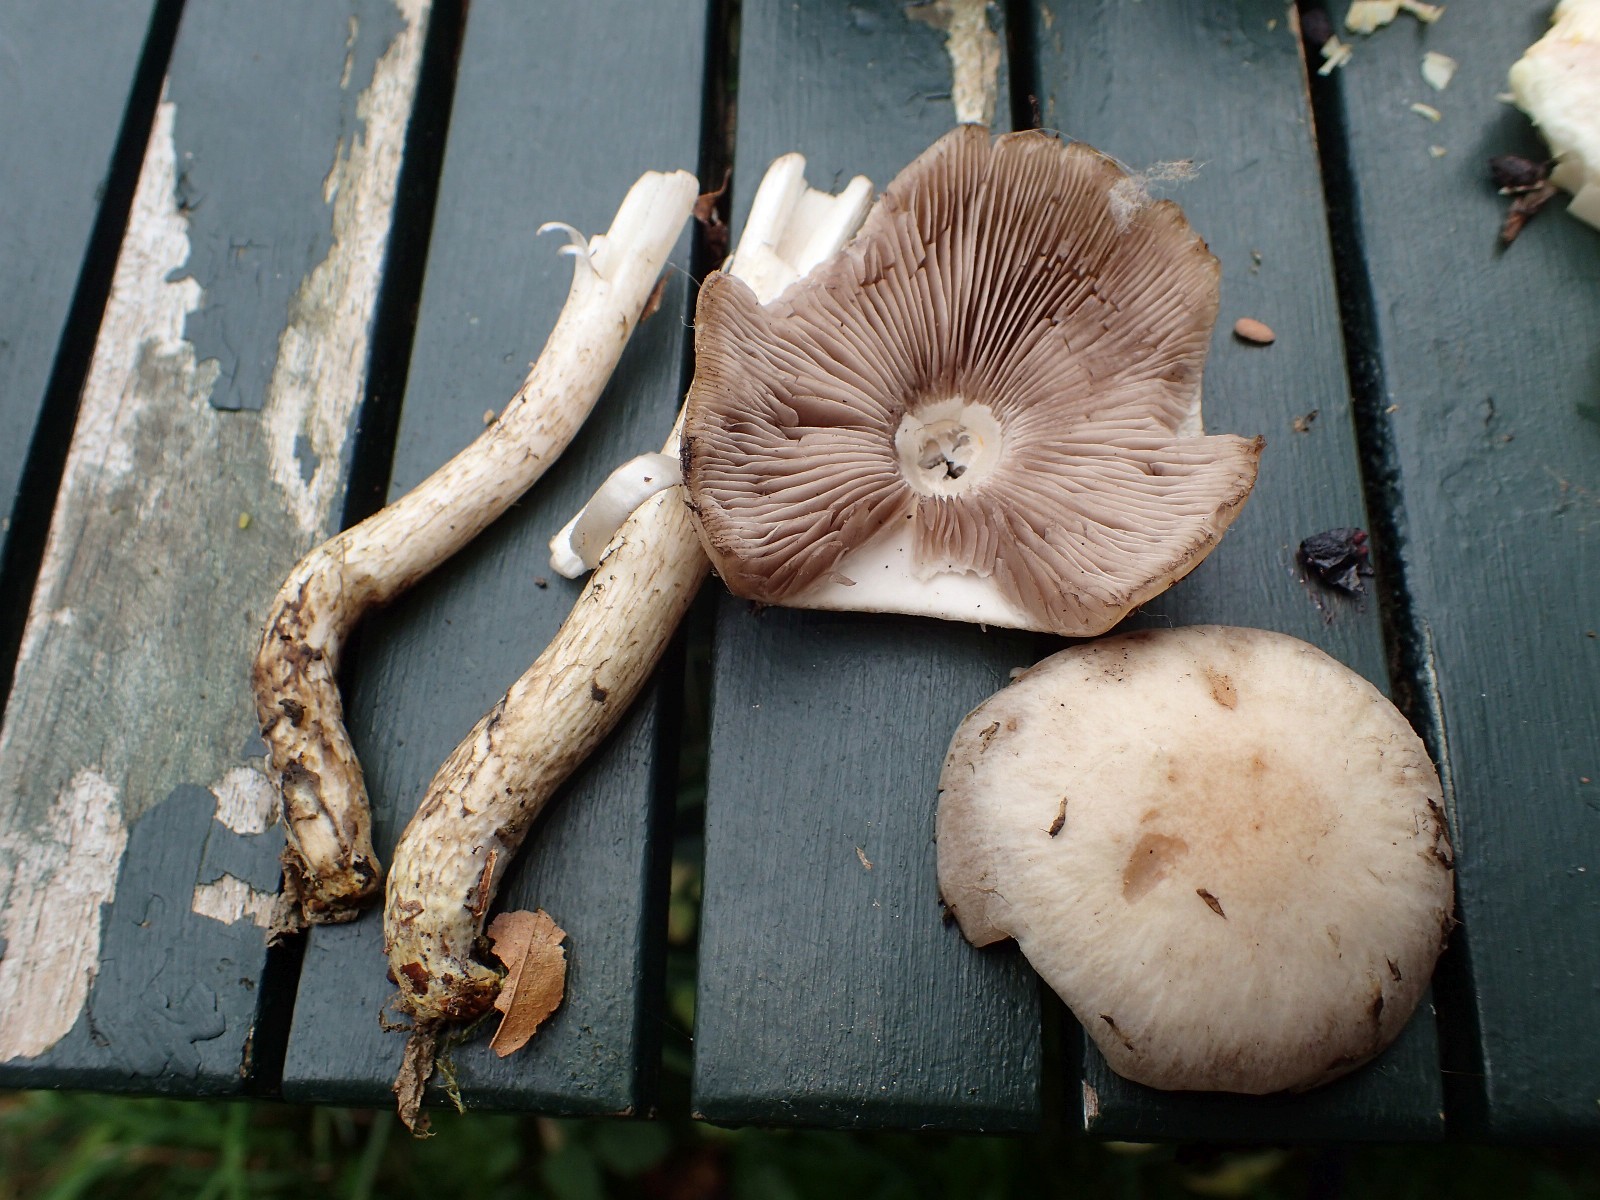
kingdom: Fungi
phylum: Basidiomycota
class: Agaricomycetes
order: Agaricales
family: Psathyrellaceae
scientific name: Psathyrellaceae
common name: mørkhatfamilien
